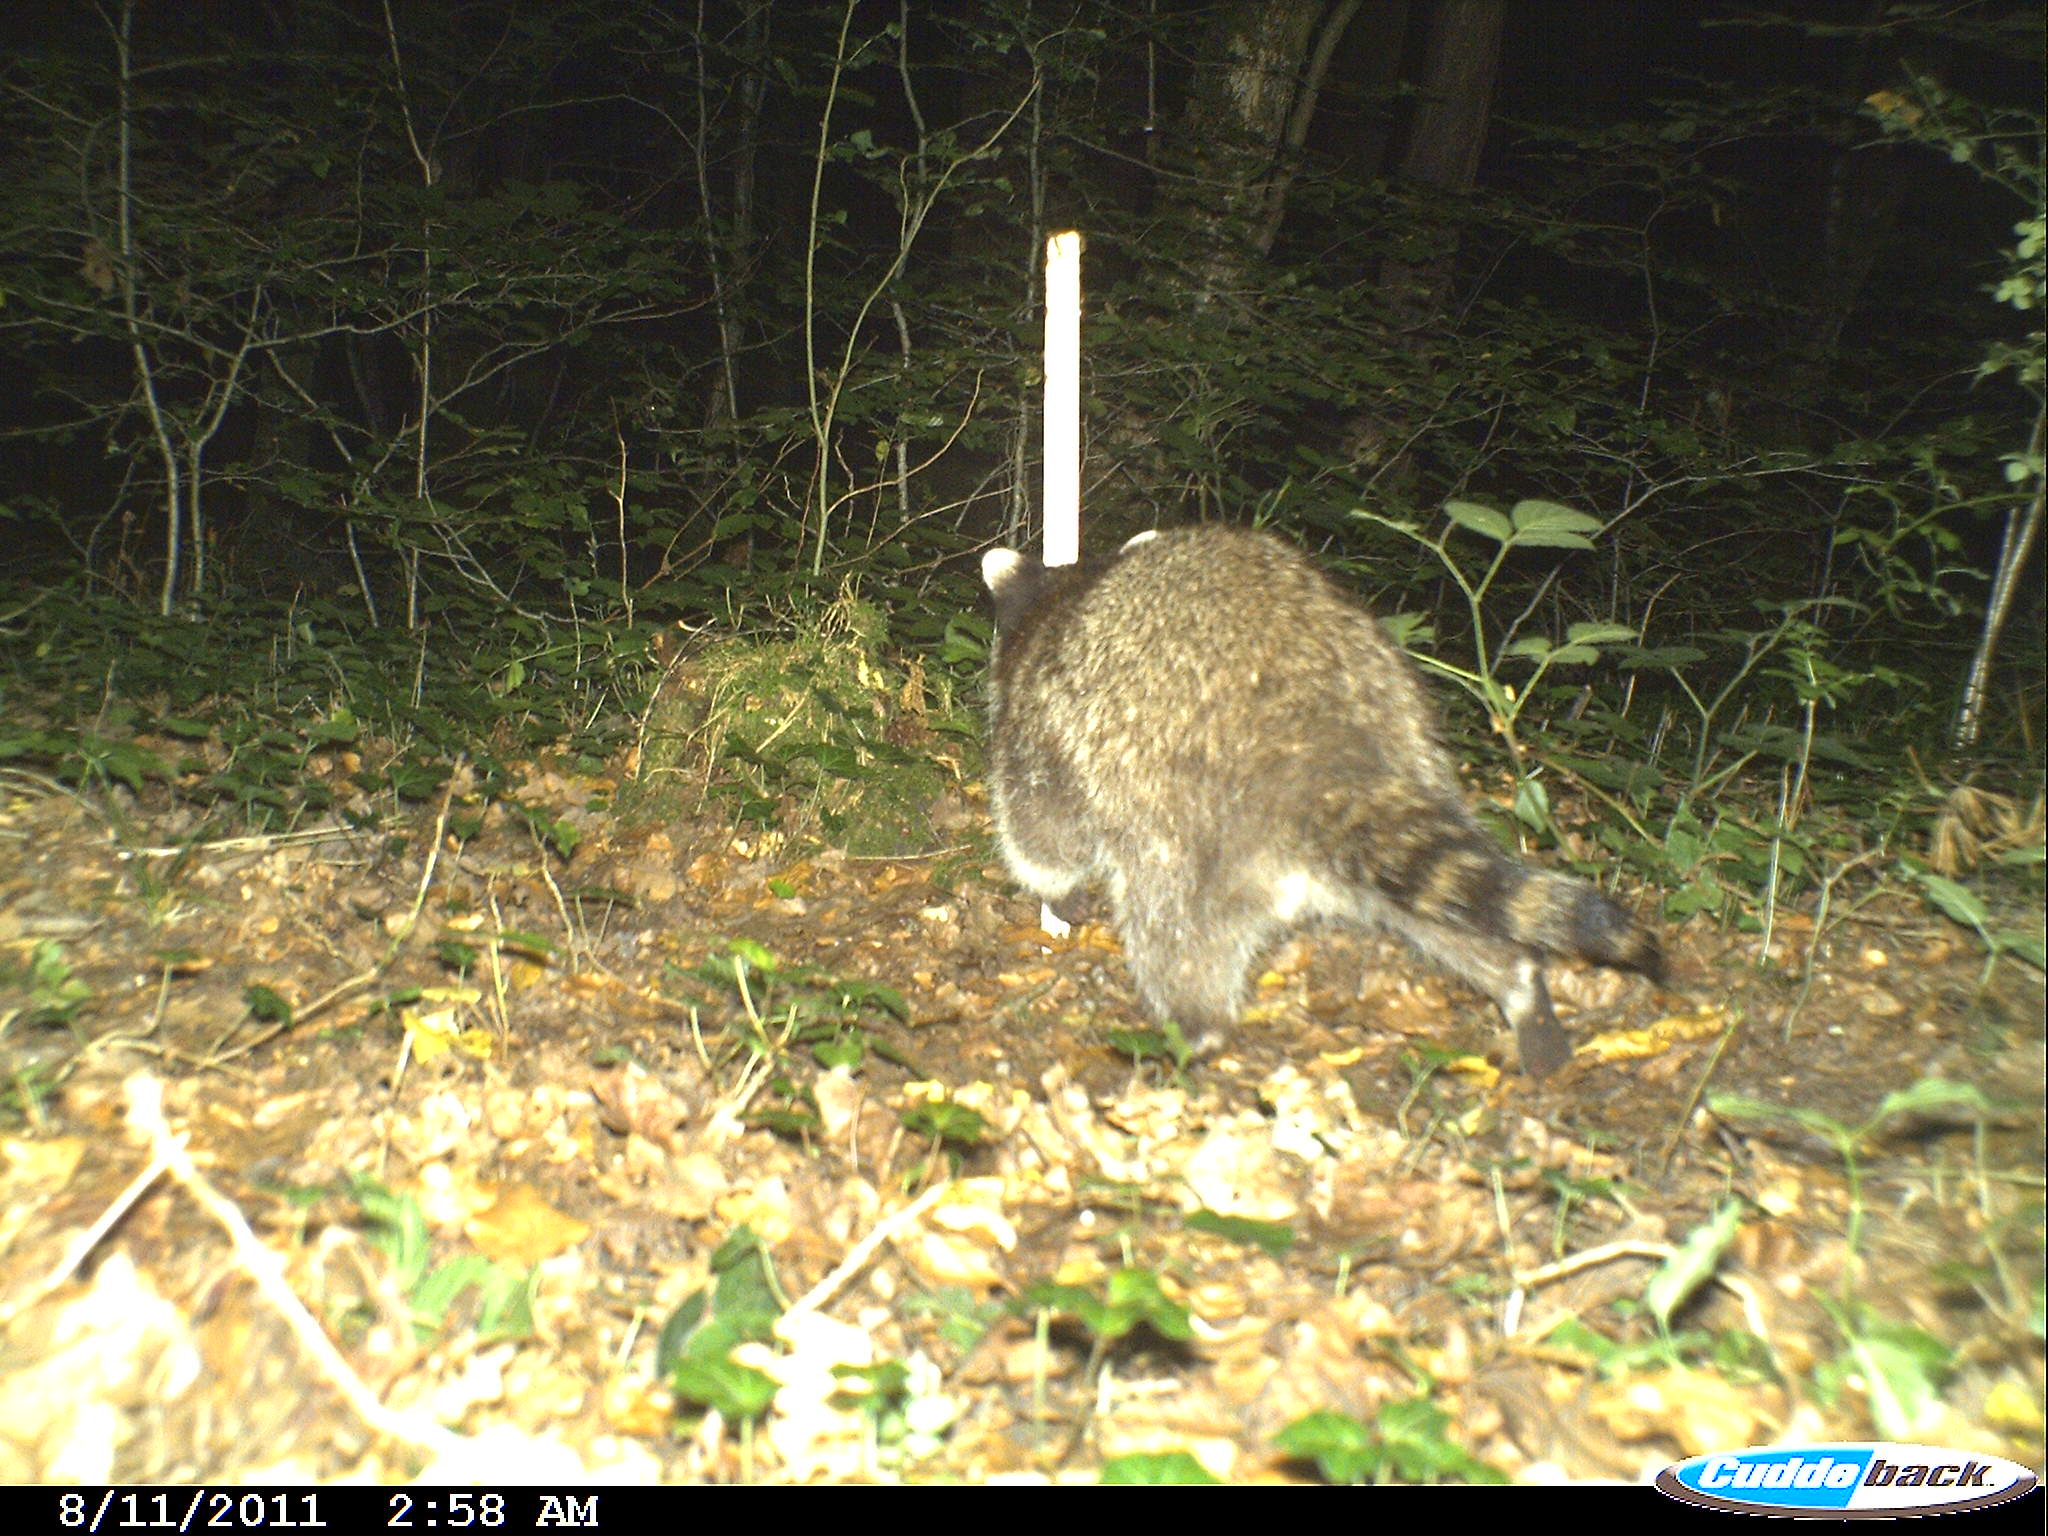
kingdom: Animalia
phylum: Chordata
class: Mammalia
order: Carnivora
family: Procyonidae
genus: Procyon
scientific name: Procyon lotor
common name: Raccoon
